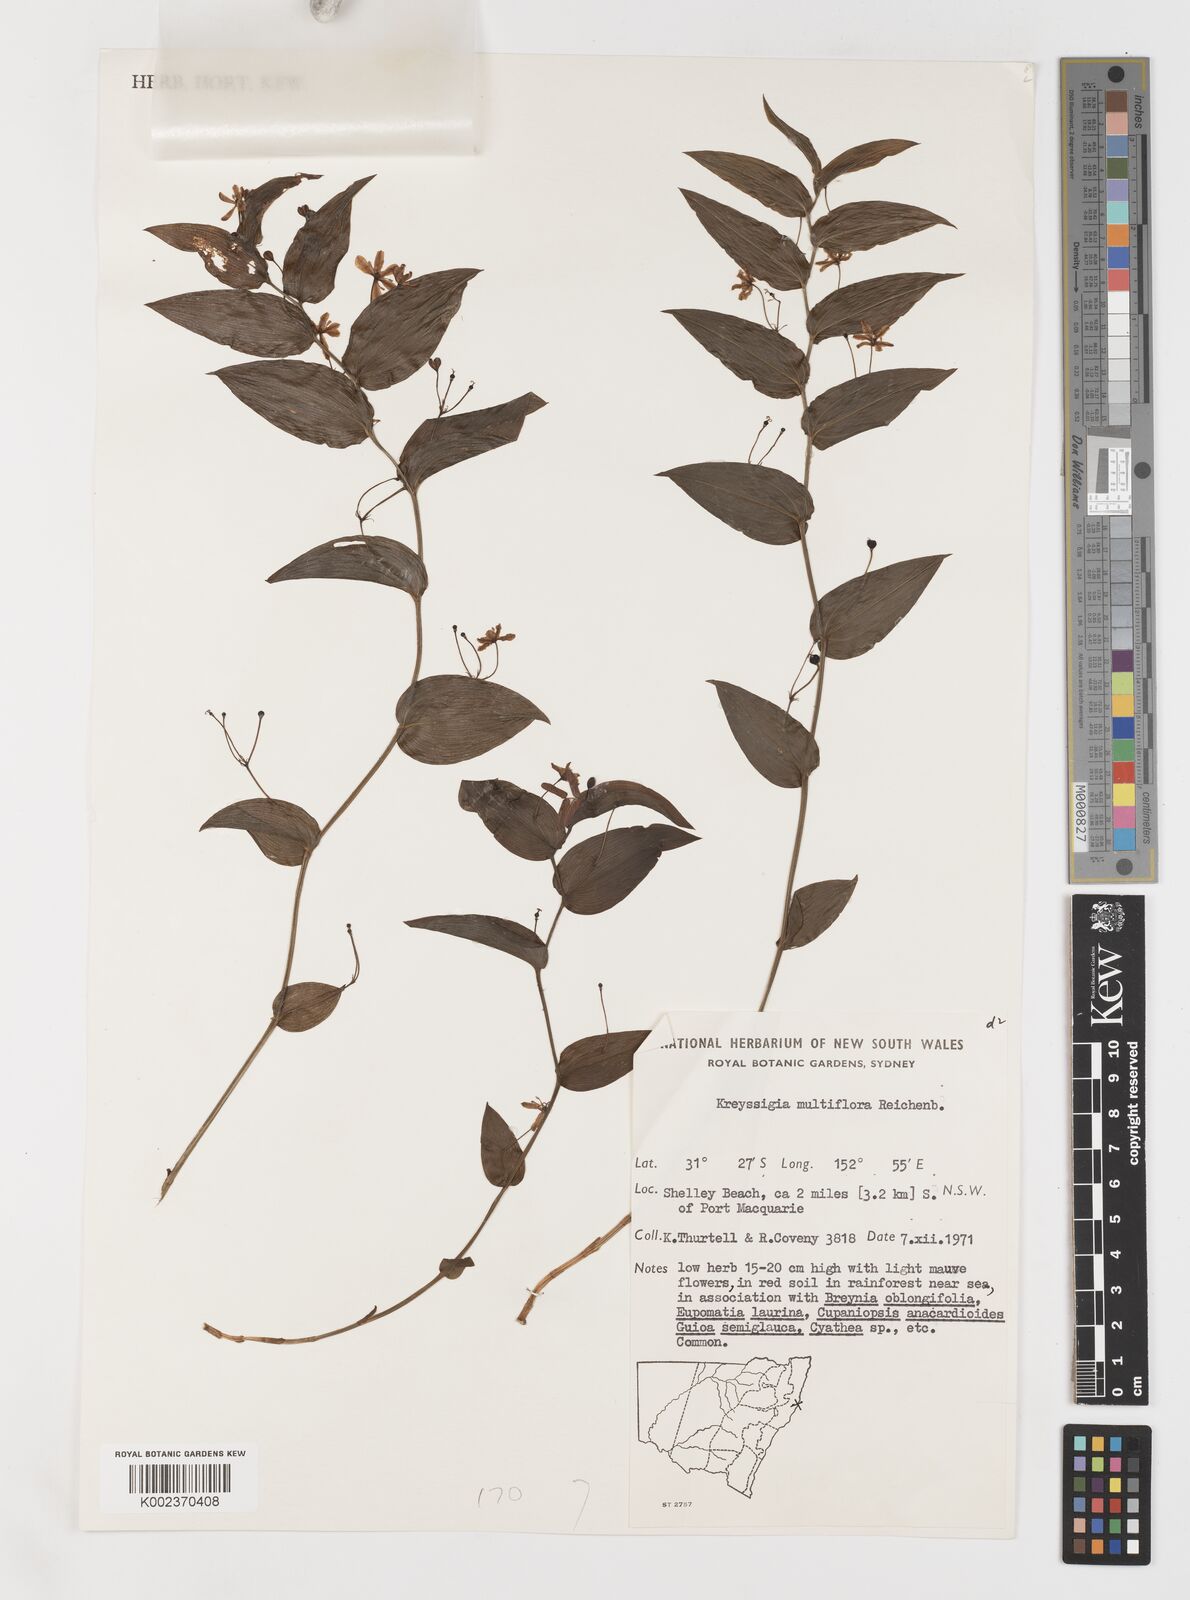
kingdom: Plantae
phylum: Tracheophyta
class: Liliopsida
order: Liliales
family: Colchicaceae
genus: Tripladenia
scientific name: Tripladenia
